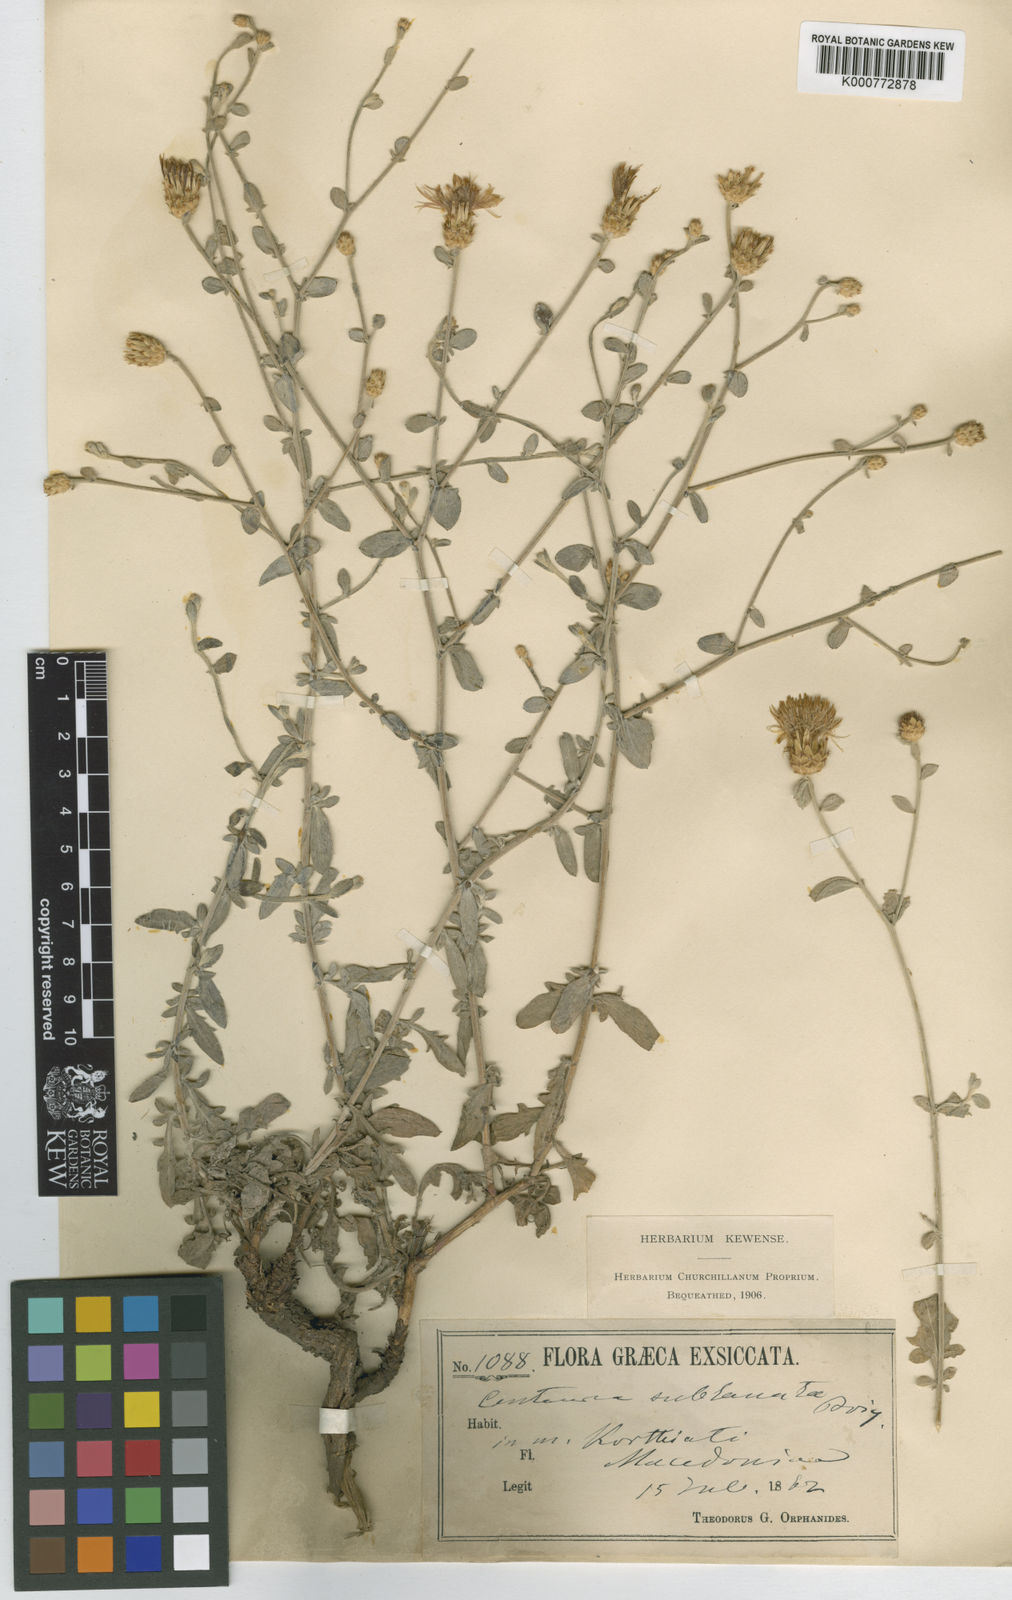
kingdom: Plantae
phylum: Tracheophyta
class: Magnoliopsida
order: Asterales
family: Asteraceae
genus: Centaurea
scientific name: Centaurea cuneifolia
